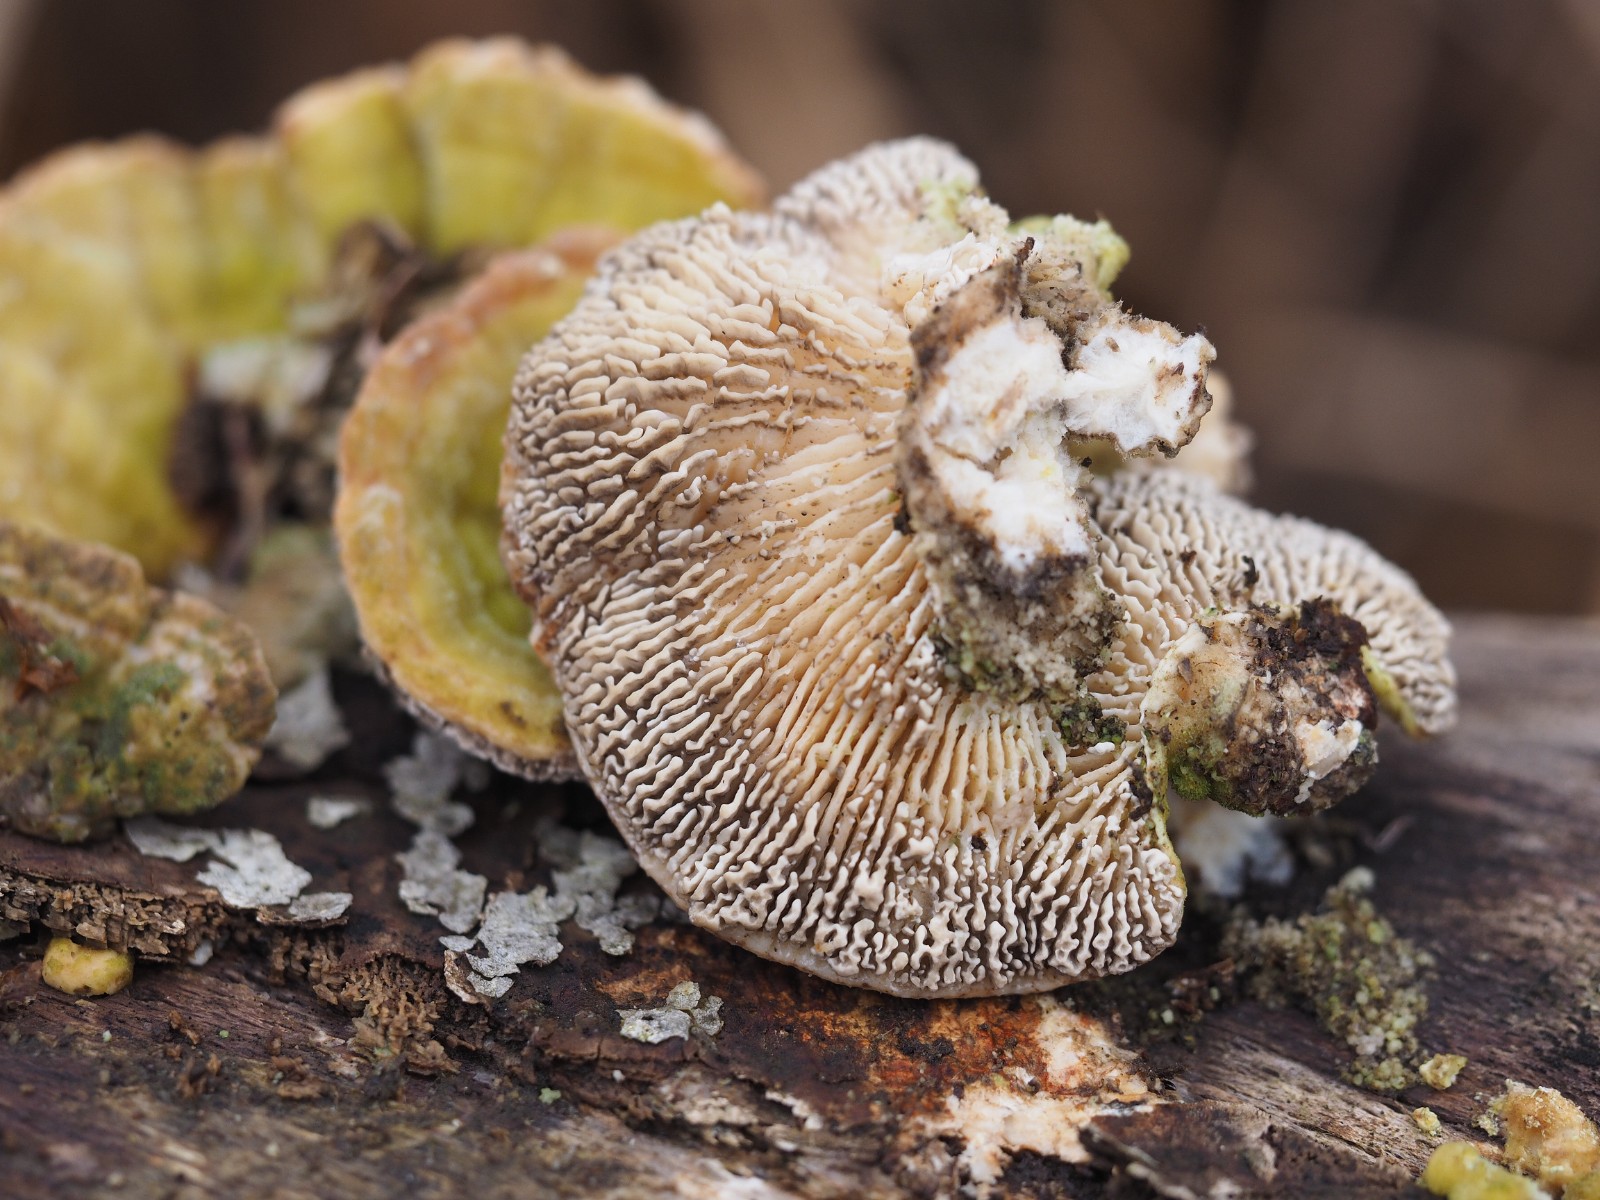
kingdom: Fungi
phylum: Basidiomycota
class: Agaricomycetes
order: Polyporales
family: Polyporaceae
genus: Lenzites
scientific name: Lenzites betulinus
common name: birke-læderporesvamp
